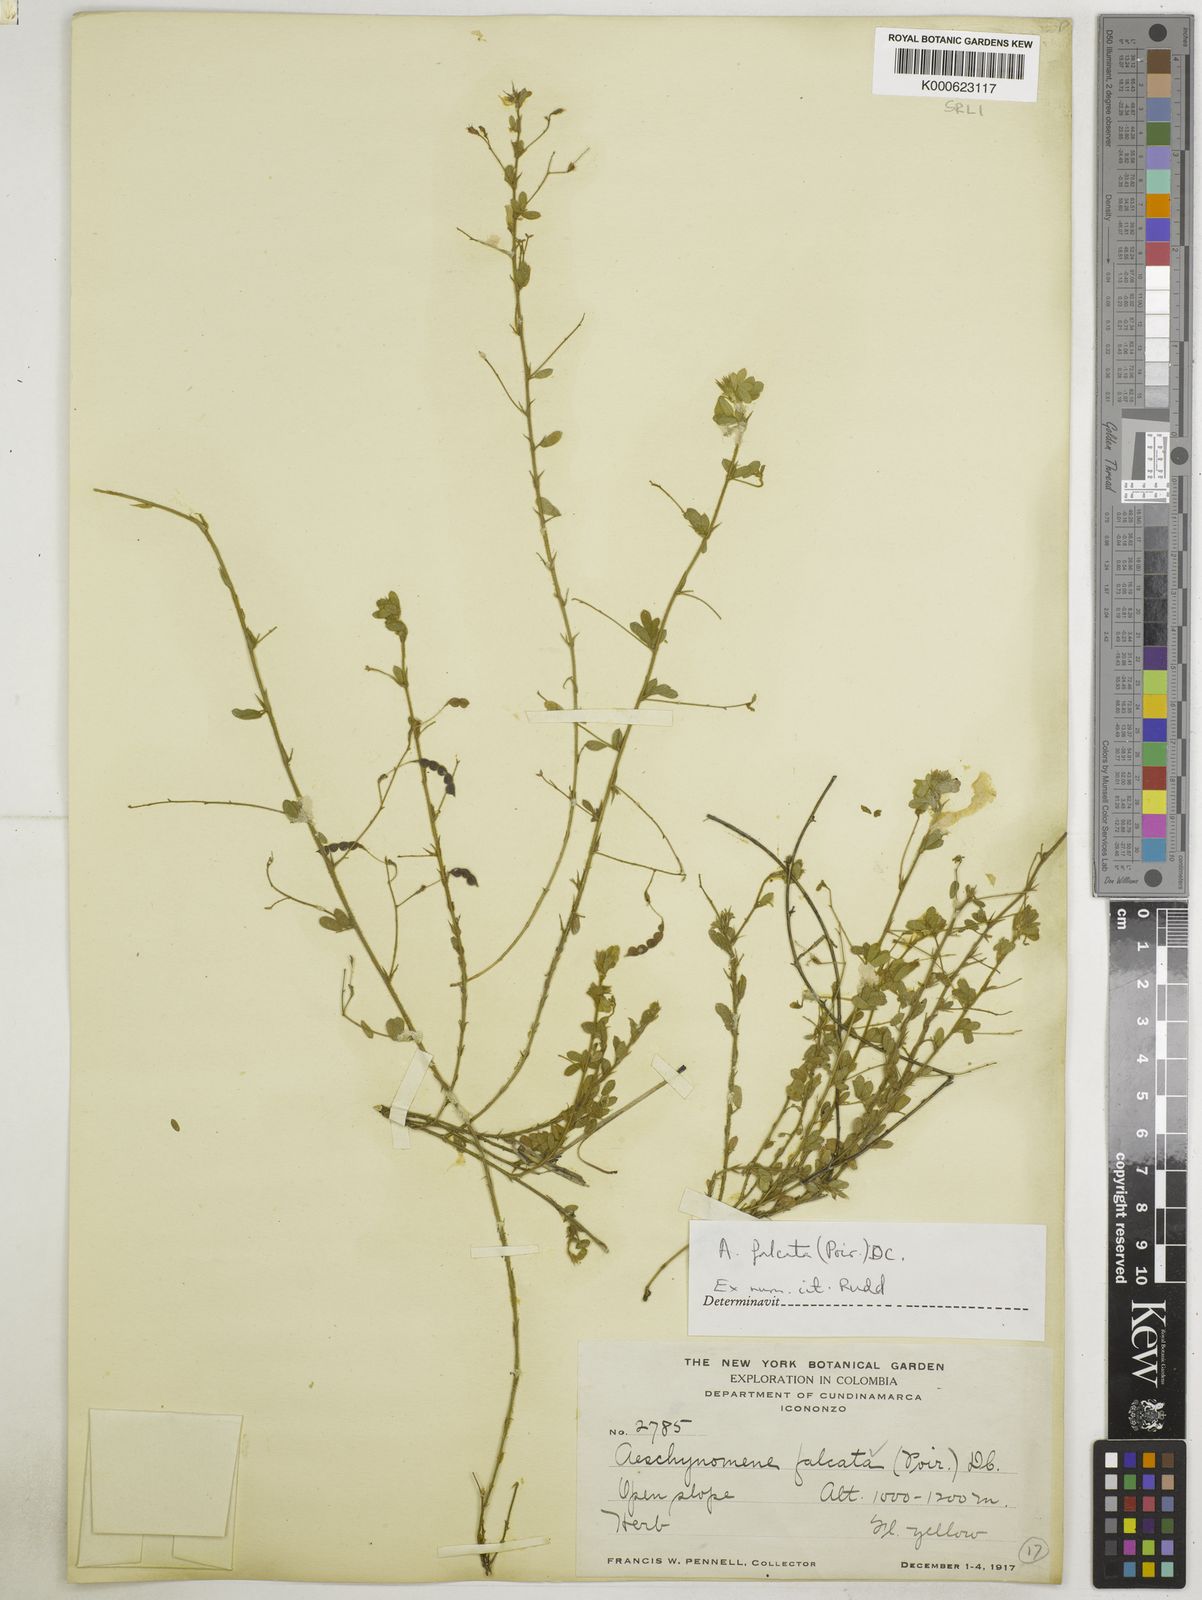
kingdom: Plantae
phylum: Tracheophyta
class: Magnoliopsida
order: Fabales
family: Fabaceae
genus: Ctenodon
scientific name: Ctenodon falcatus
